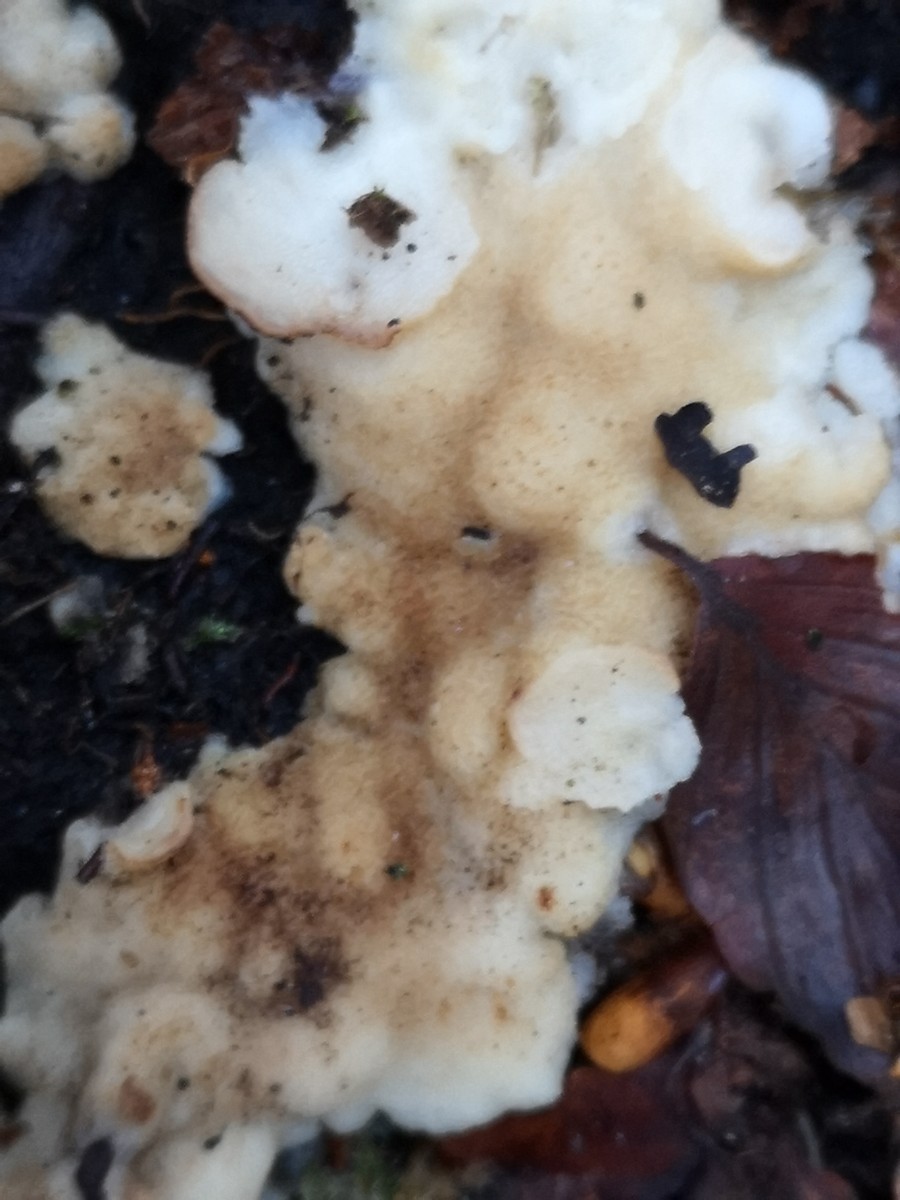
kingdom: Fungi
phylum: Basidiomycota
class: Agaricomycetes
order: Corticiales
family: Corticiaceae
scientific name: Corticiaceae
